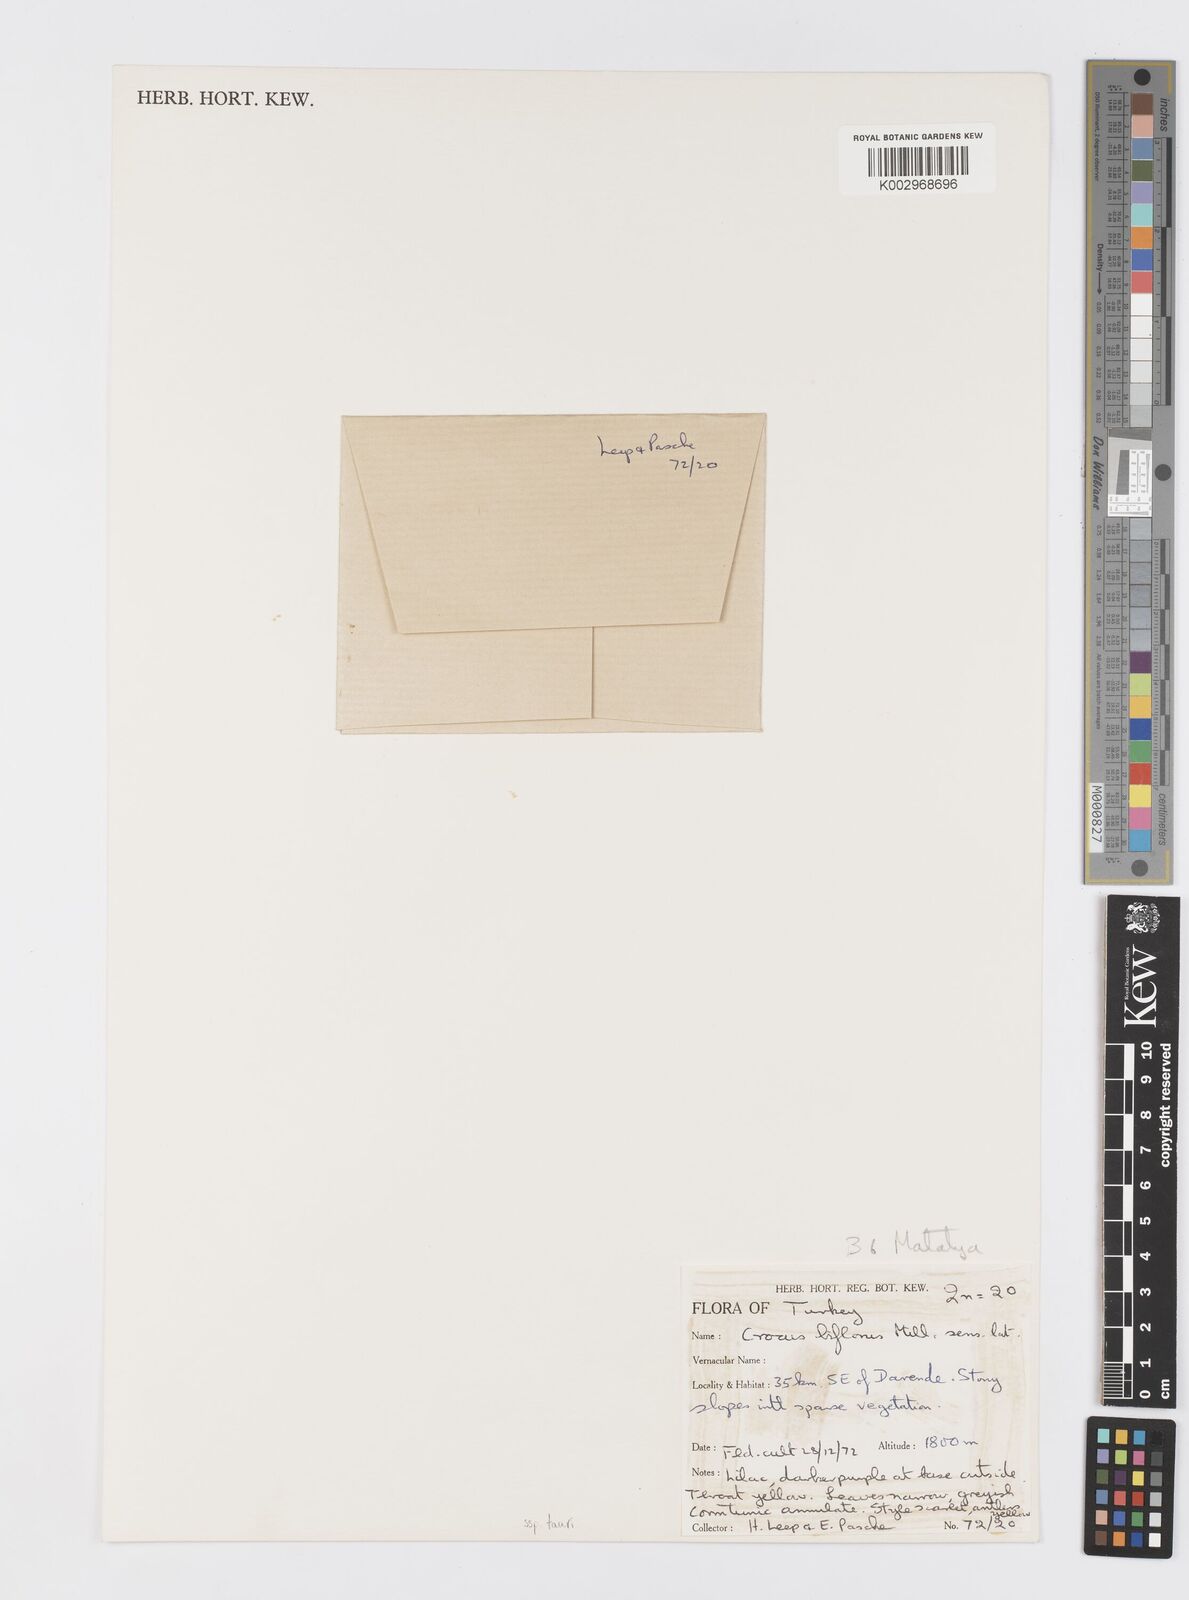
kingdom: Plantae
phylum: Tracheophyta
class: Liliopsida
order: Asparagales
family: Iridaceae
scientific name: Iridaceae
